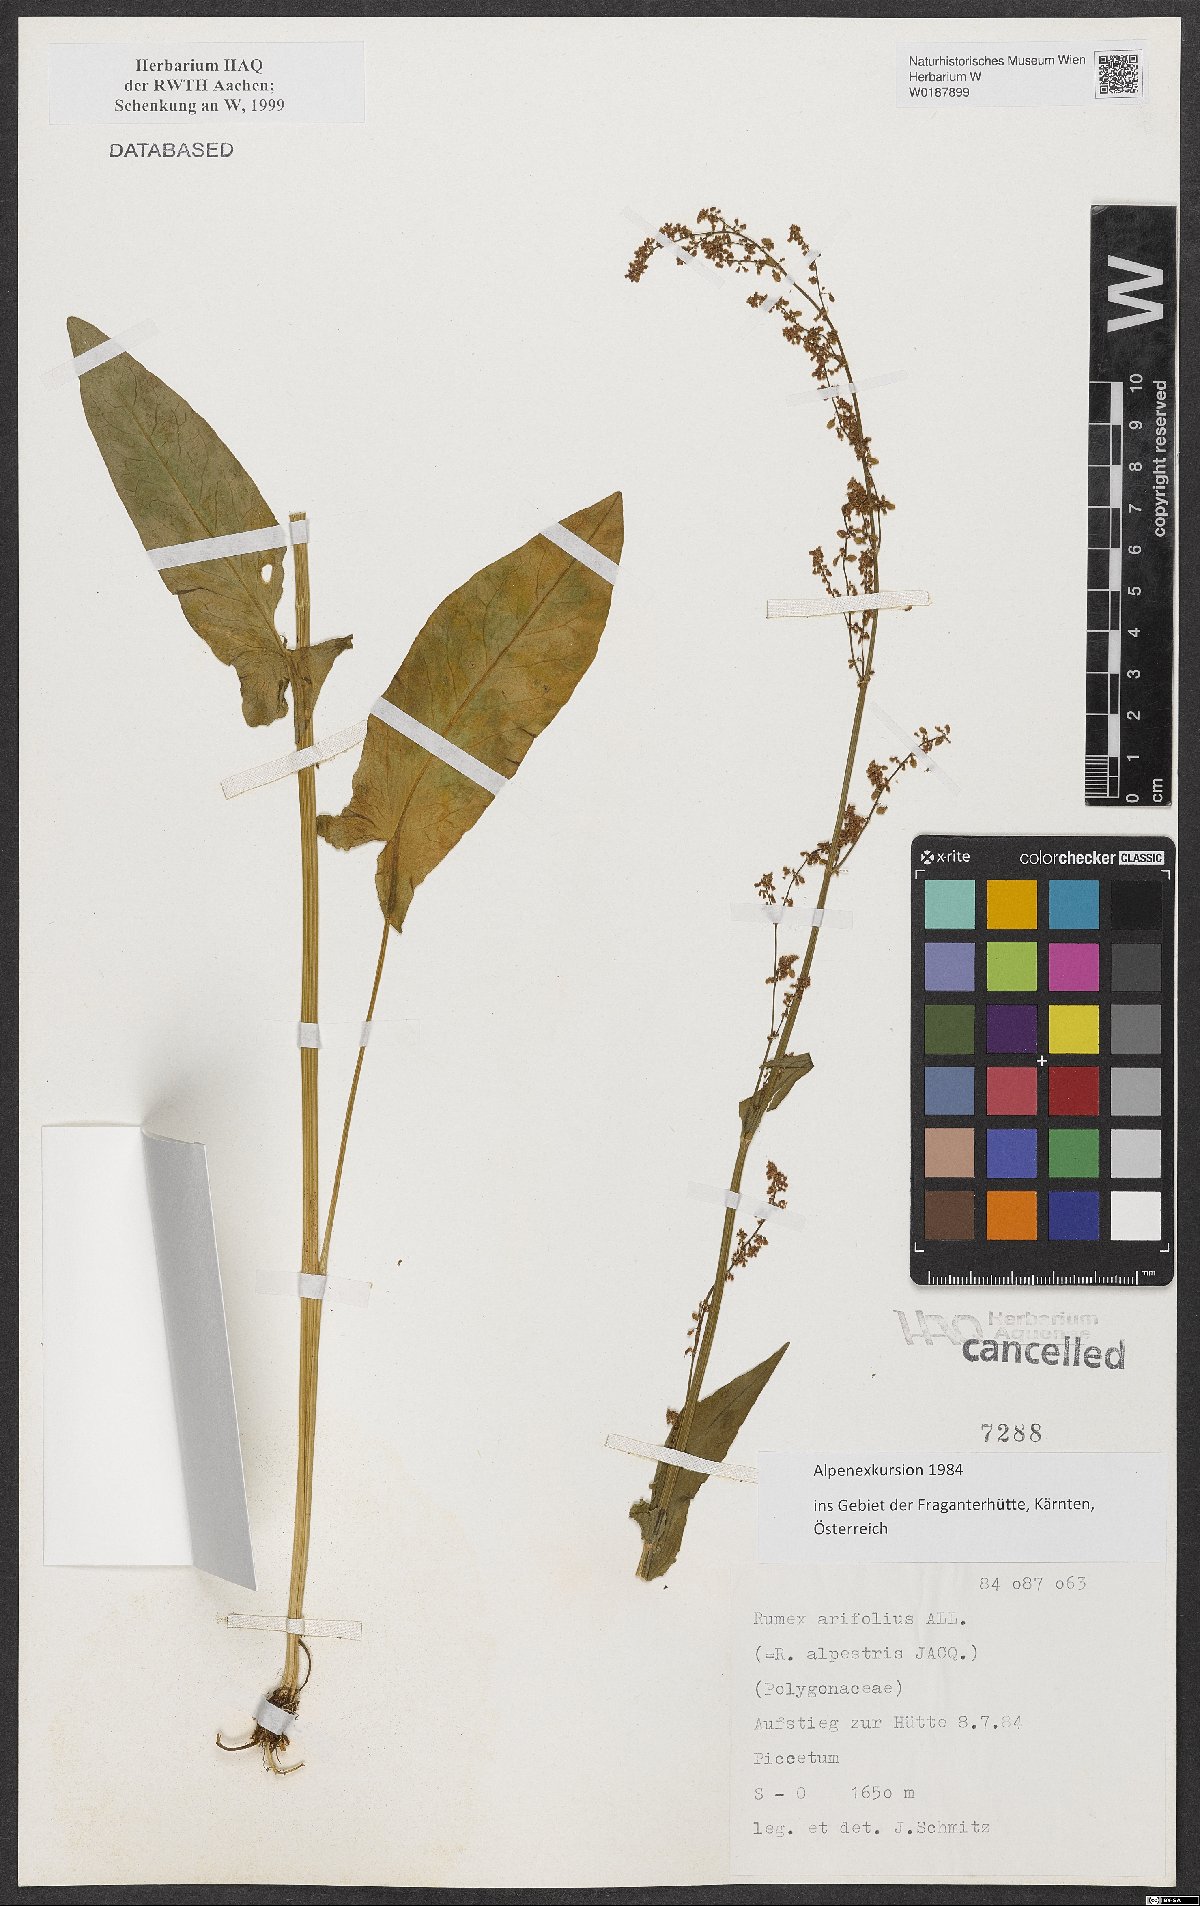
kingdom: Plantae
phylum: Tracheophyta
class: Magnoliopsida
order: Caryophyllales
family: Polygonaceae
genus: Rumex
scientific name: Rumex arifolius
